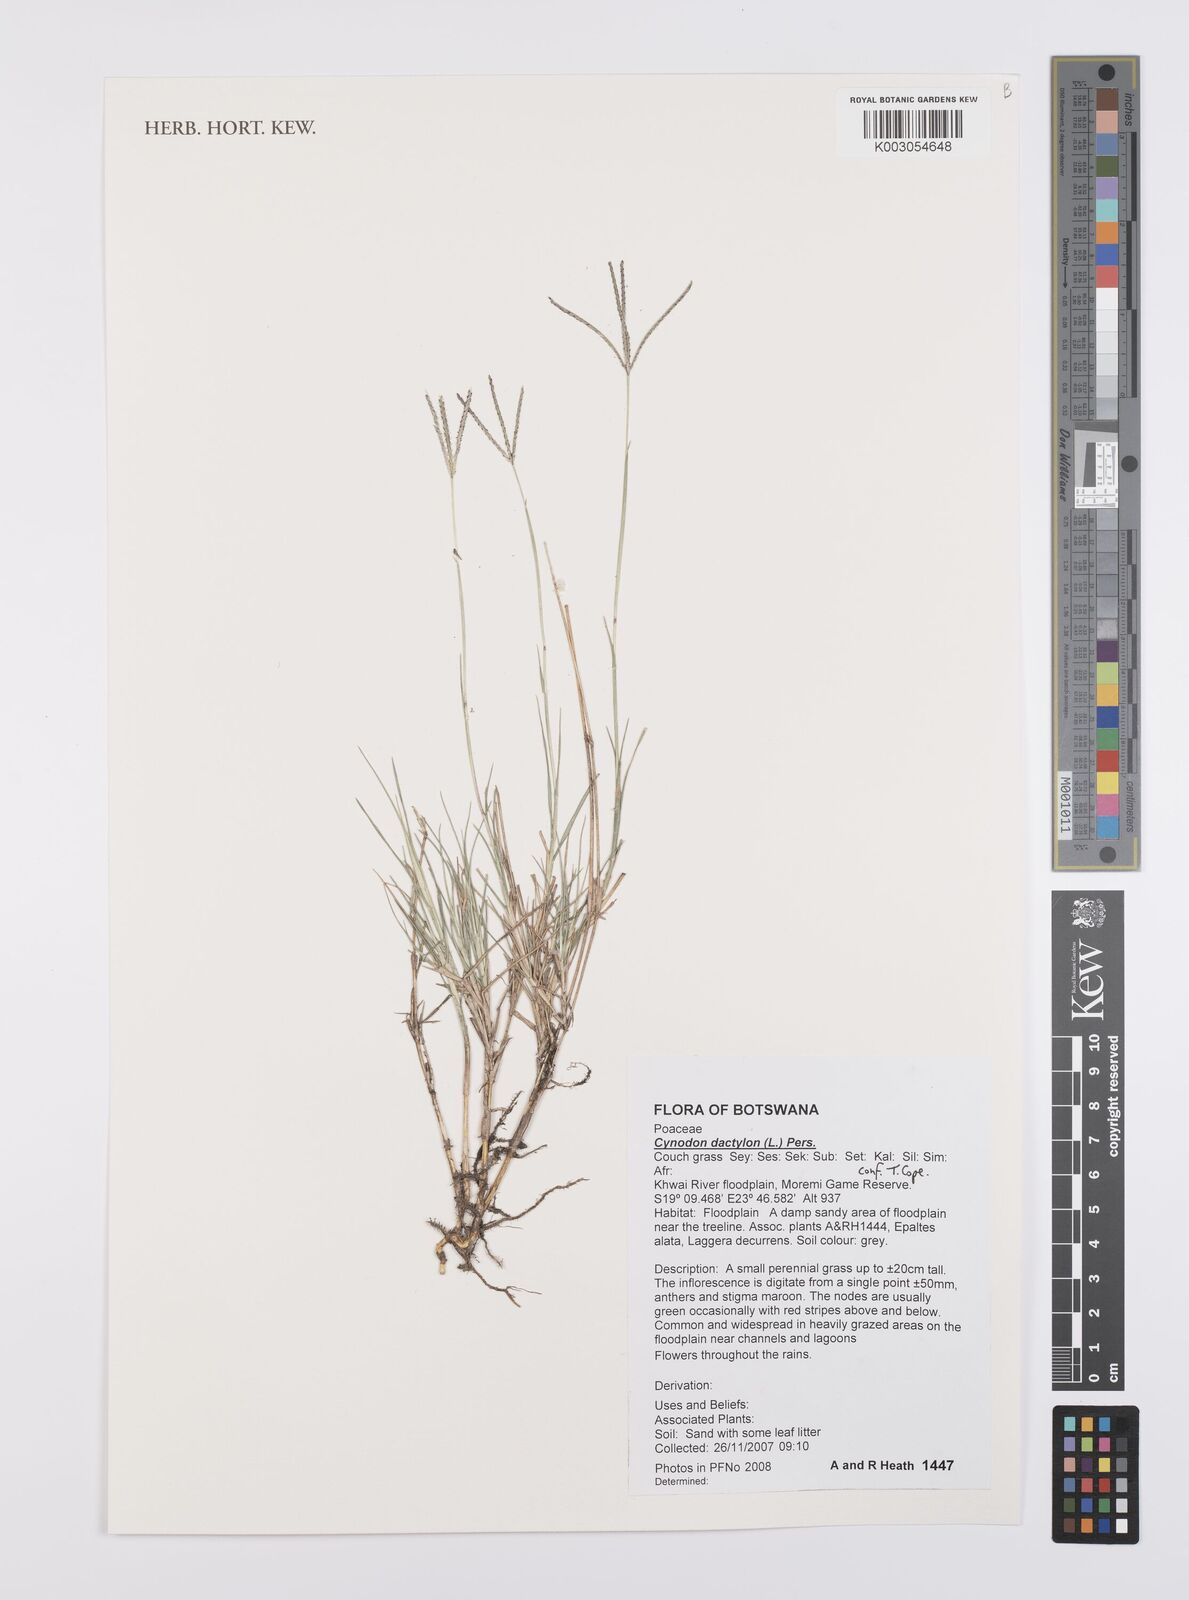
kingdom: Plantae
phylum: Tracheophyta
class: Liliopsida
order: Poales
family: Poaceae
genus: Cynodon
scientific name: Cynodon dactylon
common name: Bermuda grass
